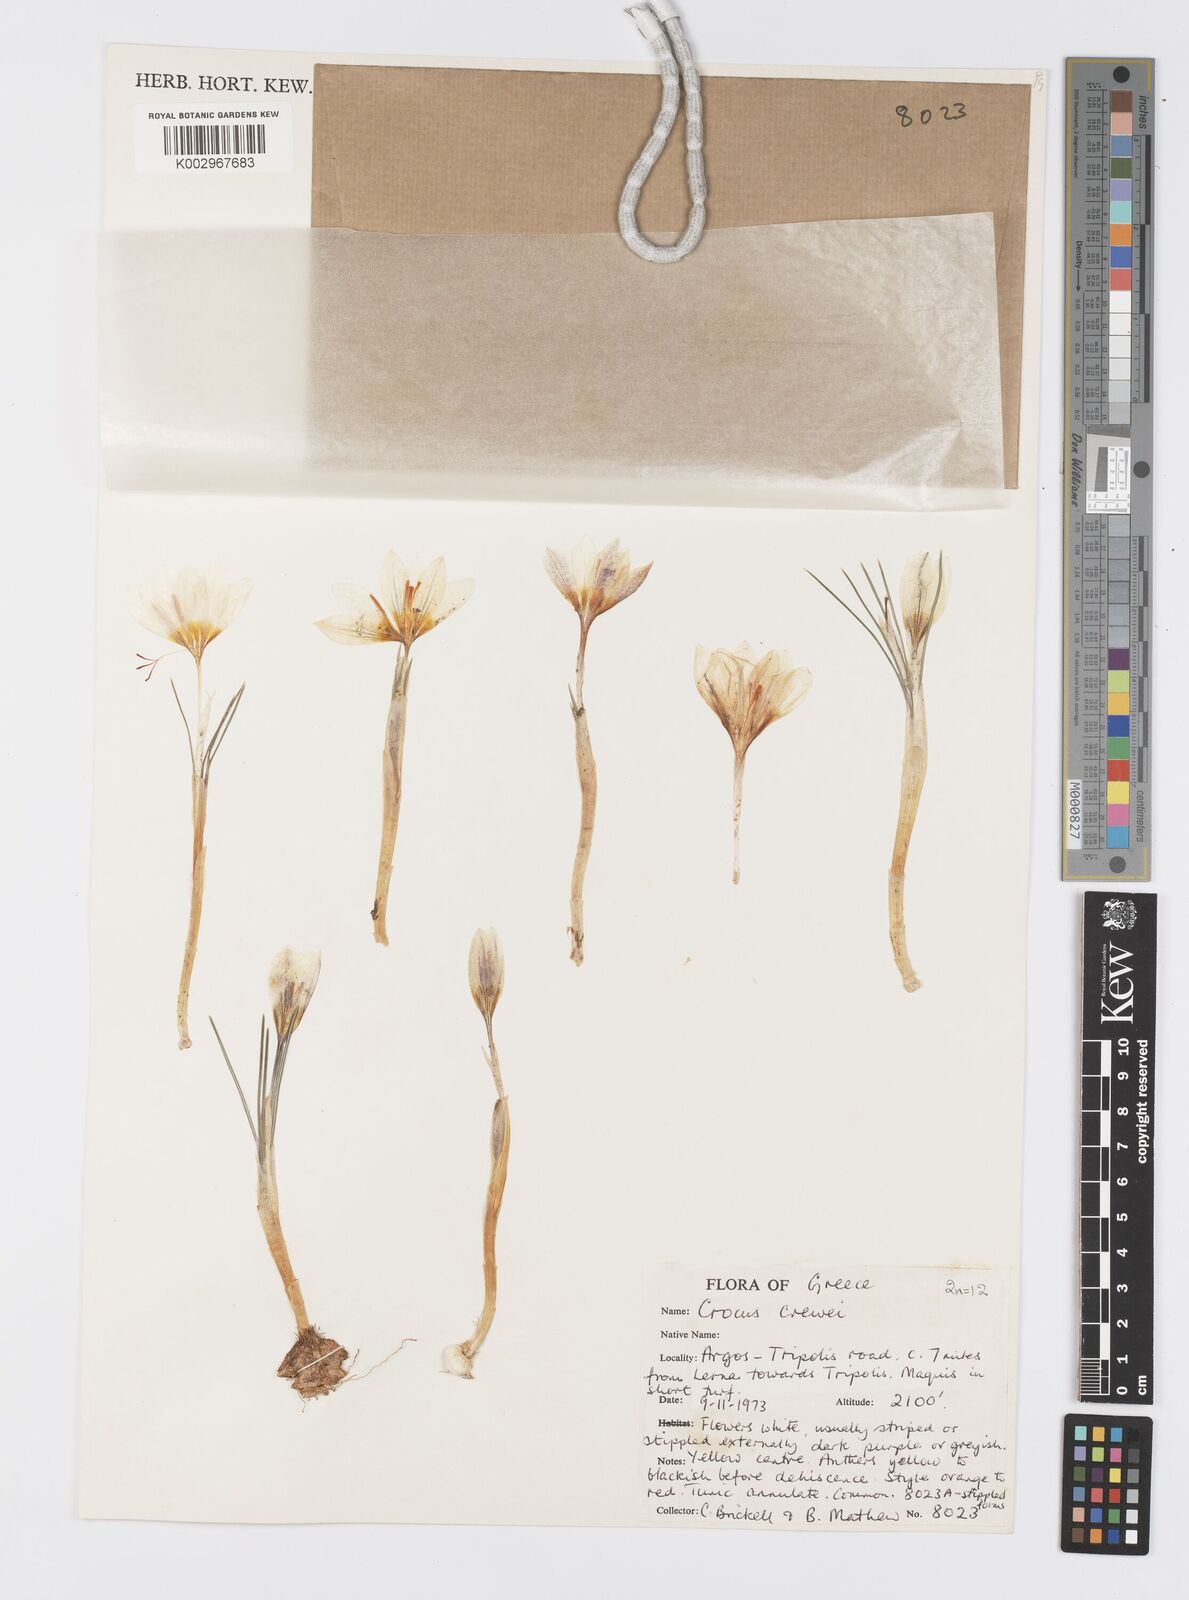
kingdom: Plantae
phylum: Tracheophyta
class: Liliopsida
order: Asparagales
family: Iridaceae
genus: Crocus
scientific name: Crocus melantherus
